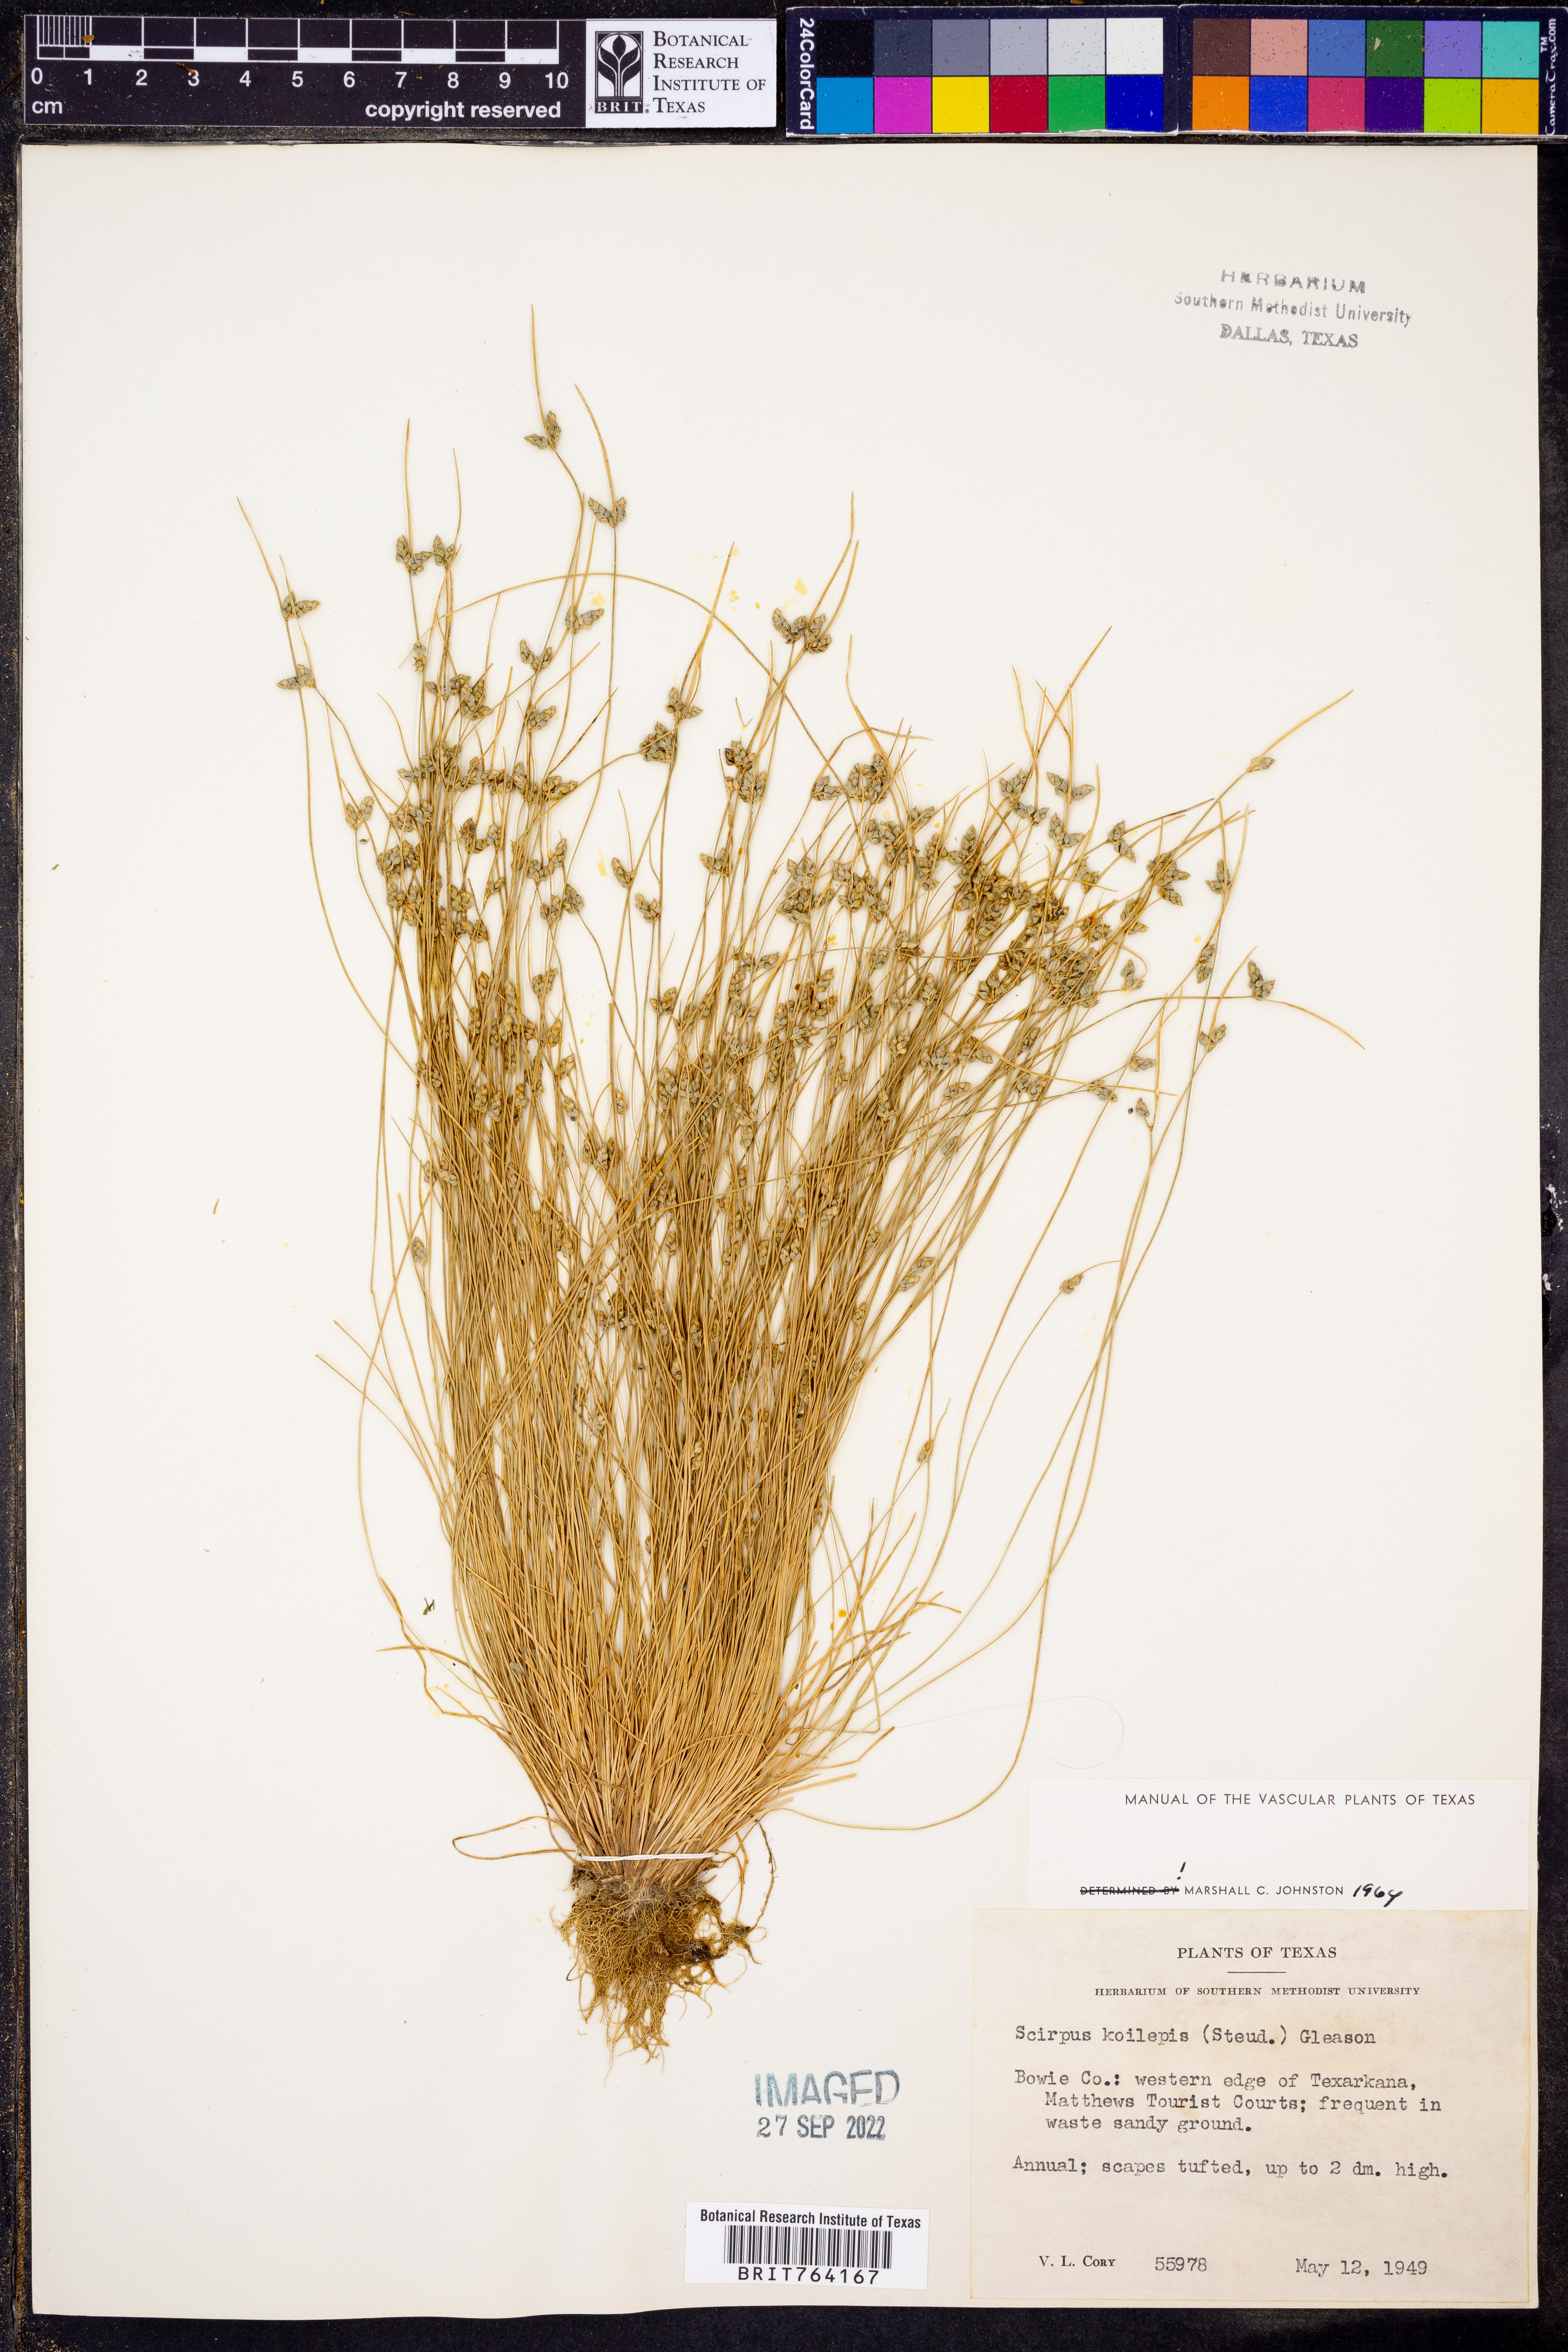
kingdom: Plantae
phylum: Tracheophyta
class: Liliopsida
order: Poales
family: Cyperaceae
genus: Isolepis
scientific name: Isolepis carinata
